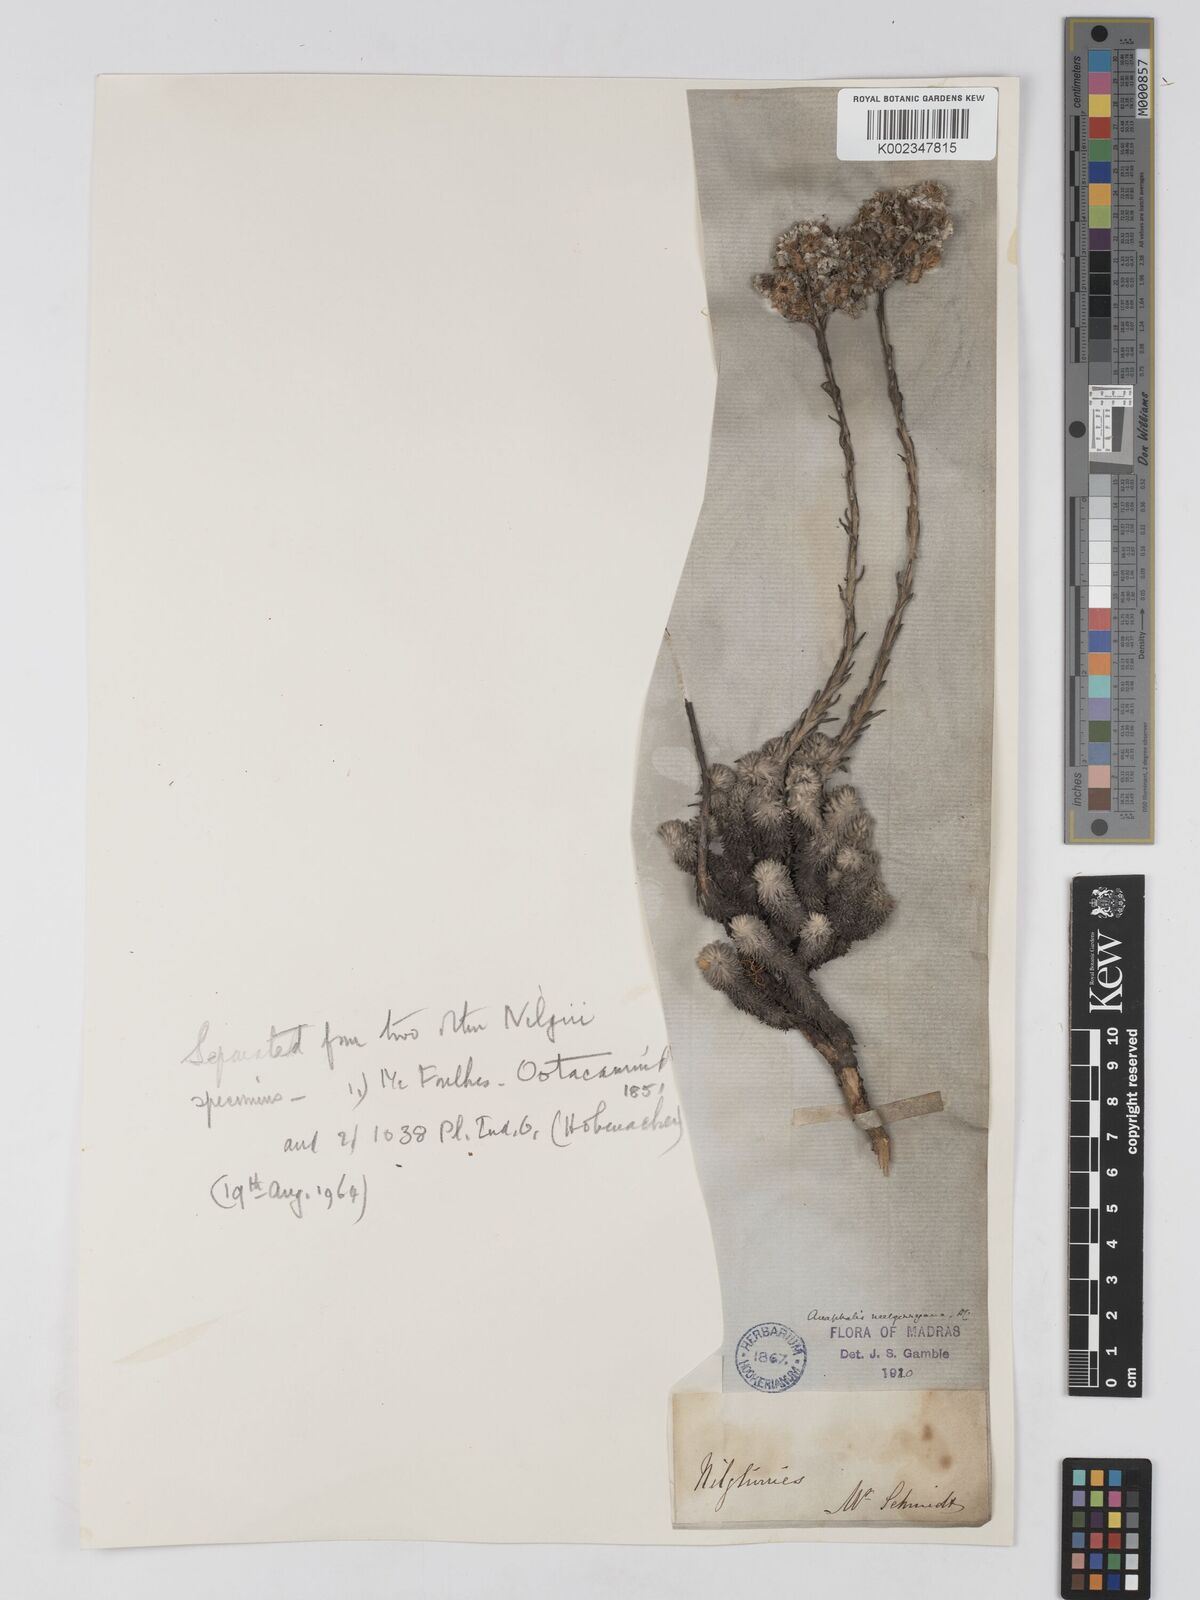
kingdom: Plantae
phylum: Tracheophyta
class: Magnoliopsida
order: Asterales
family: Asteraceae
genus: Anaphalis
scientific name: Anaphalis neelgerryana
